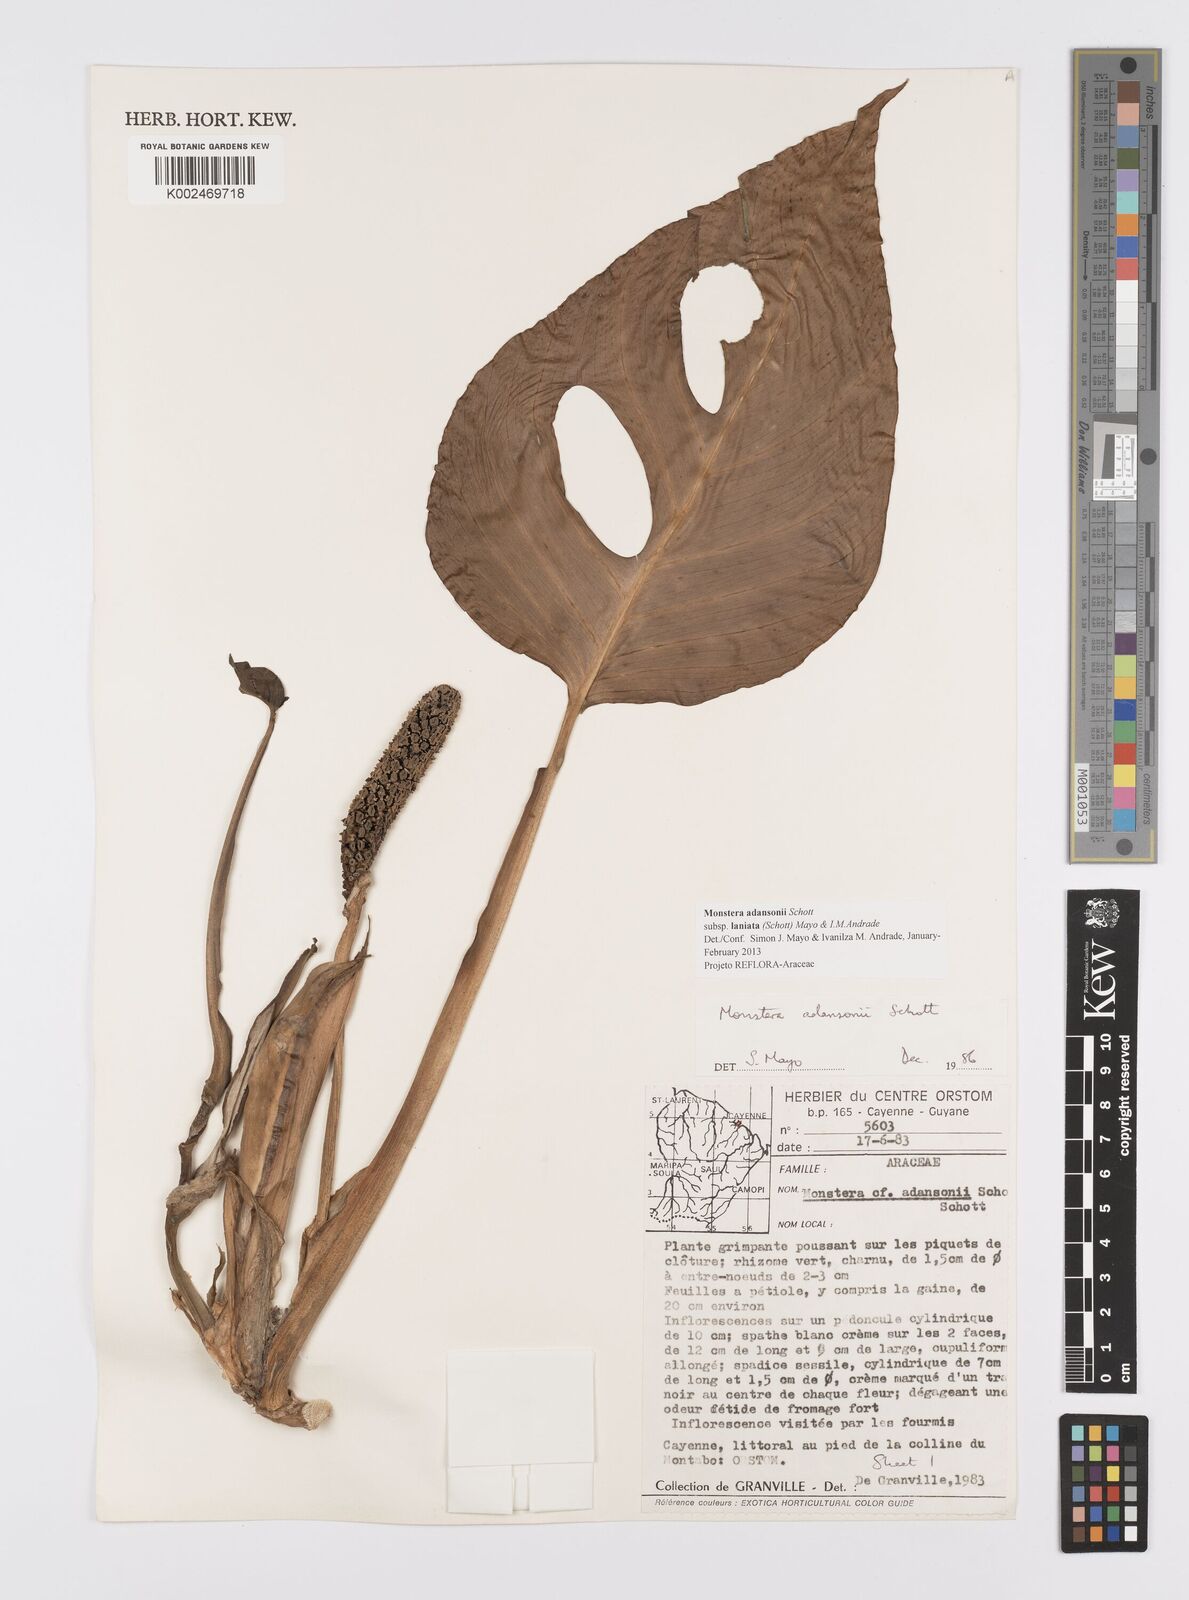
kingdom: Plantae
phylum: Tracheophyta
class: Liliopsida
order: Alismatales
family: Araceae
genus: Monstera
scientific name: Monstera adansonii
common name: Tarovine
